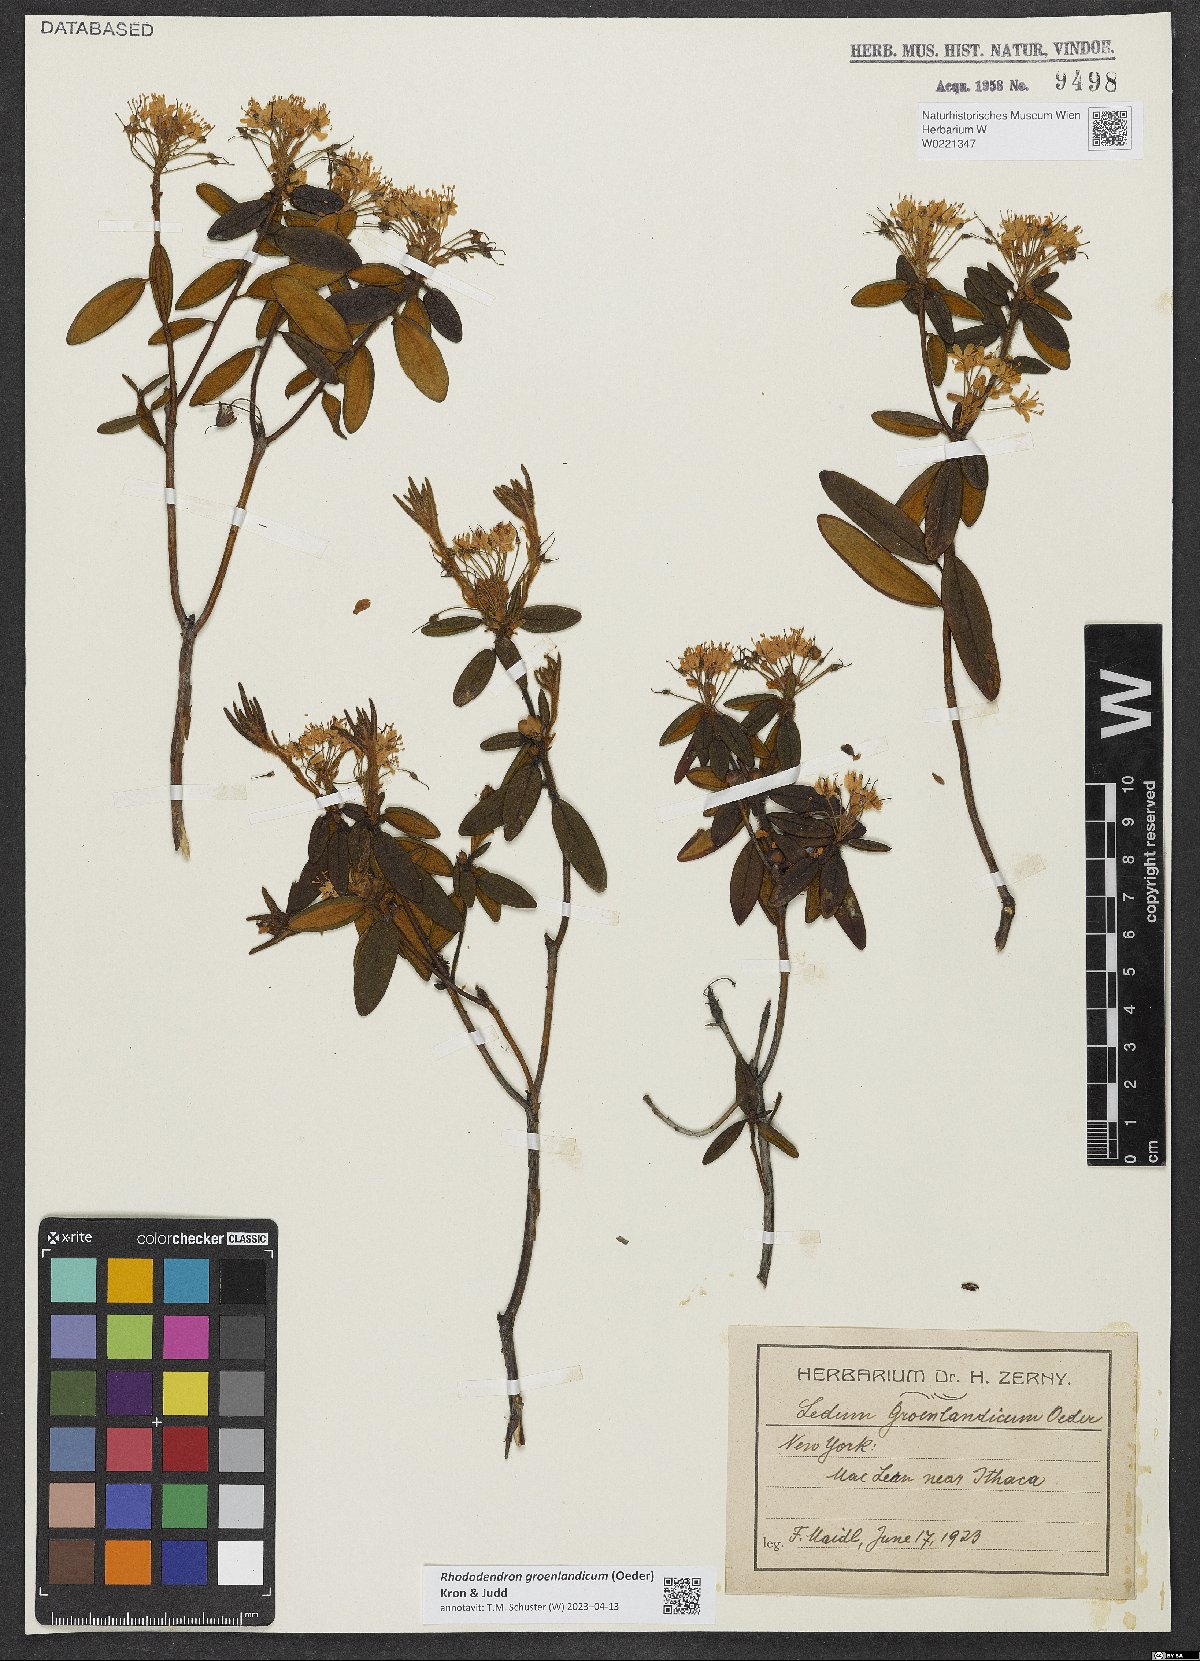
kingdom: Plantae
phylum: Tracheophyta
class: Magnoliopsida
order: Ericales
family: Ericaceae
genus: Rhododendron
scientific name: Rhododendron groenlandicum
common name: Bog labrador tea
